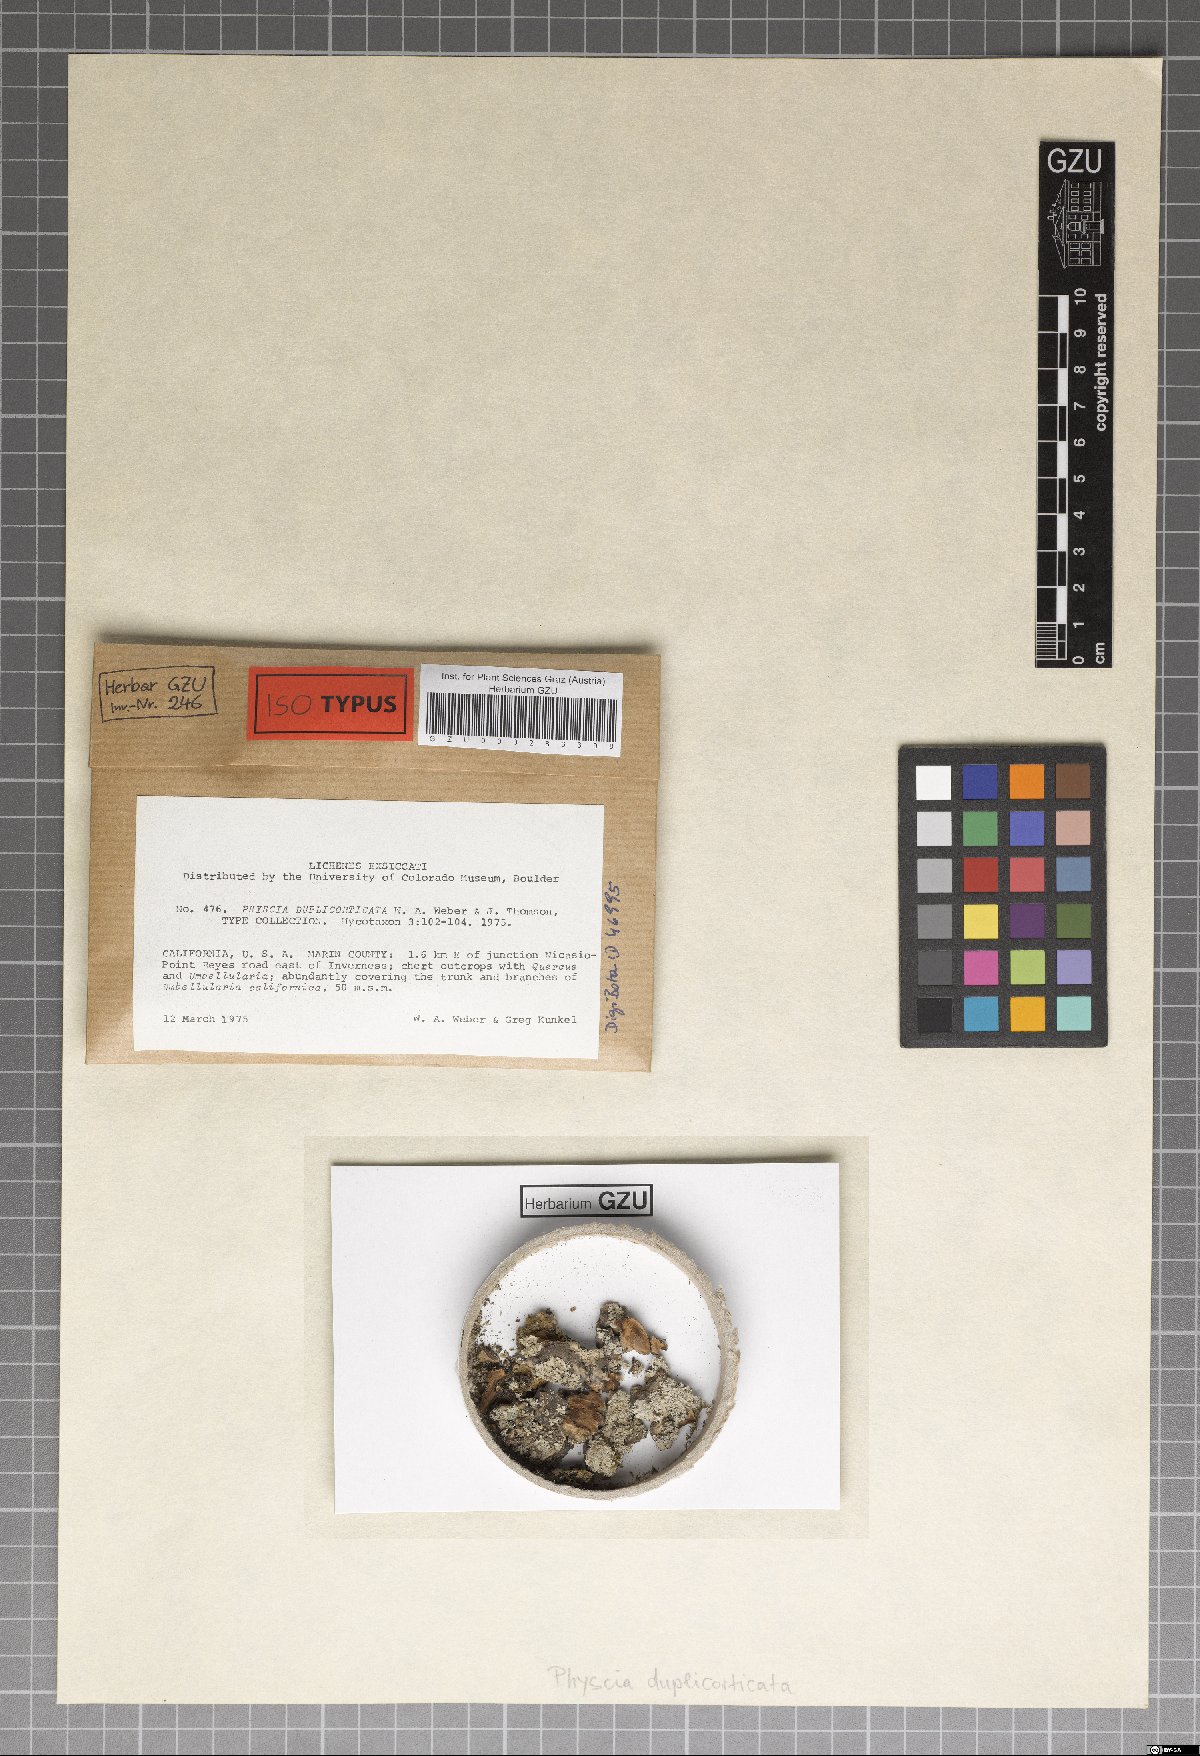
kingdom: Fungi
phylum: Ascomycota
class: Lecanoromycetes
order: Caliciales
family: Physciaceae
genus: Physcia
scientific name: Physcia duplicorticata
